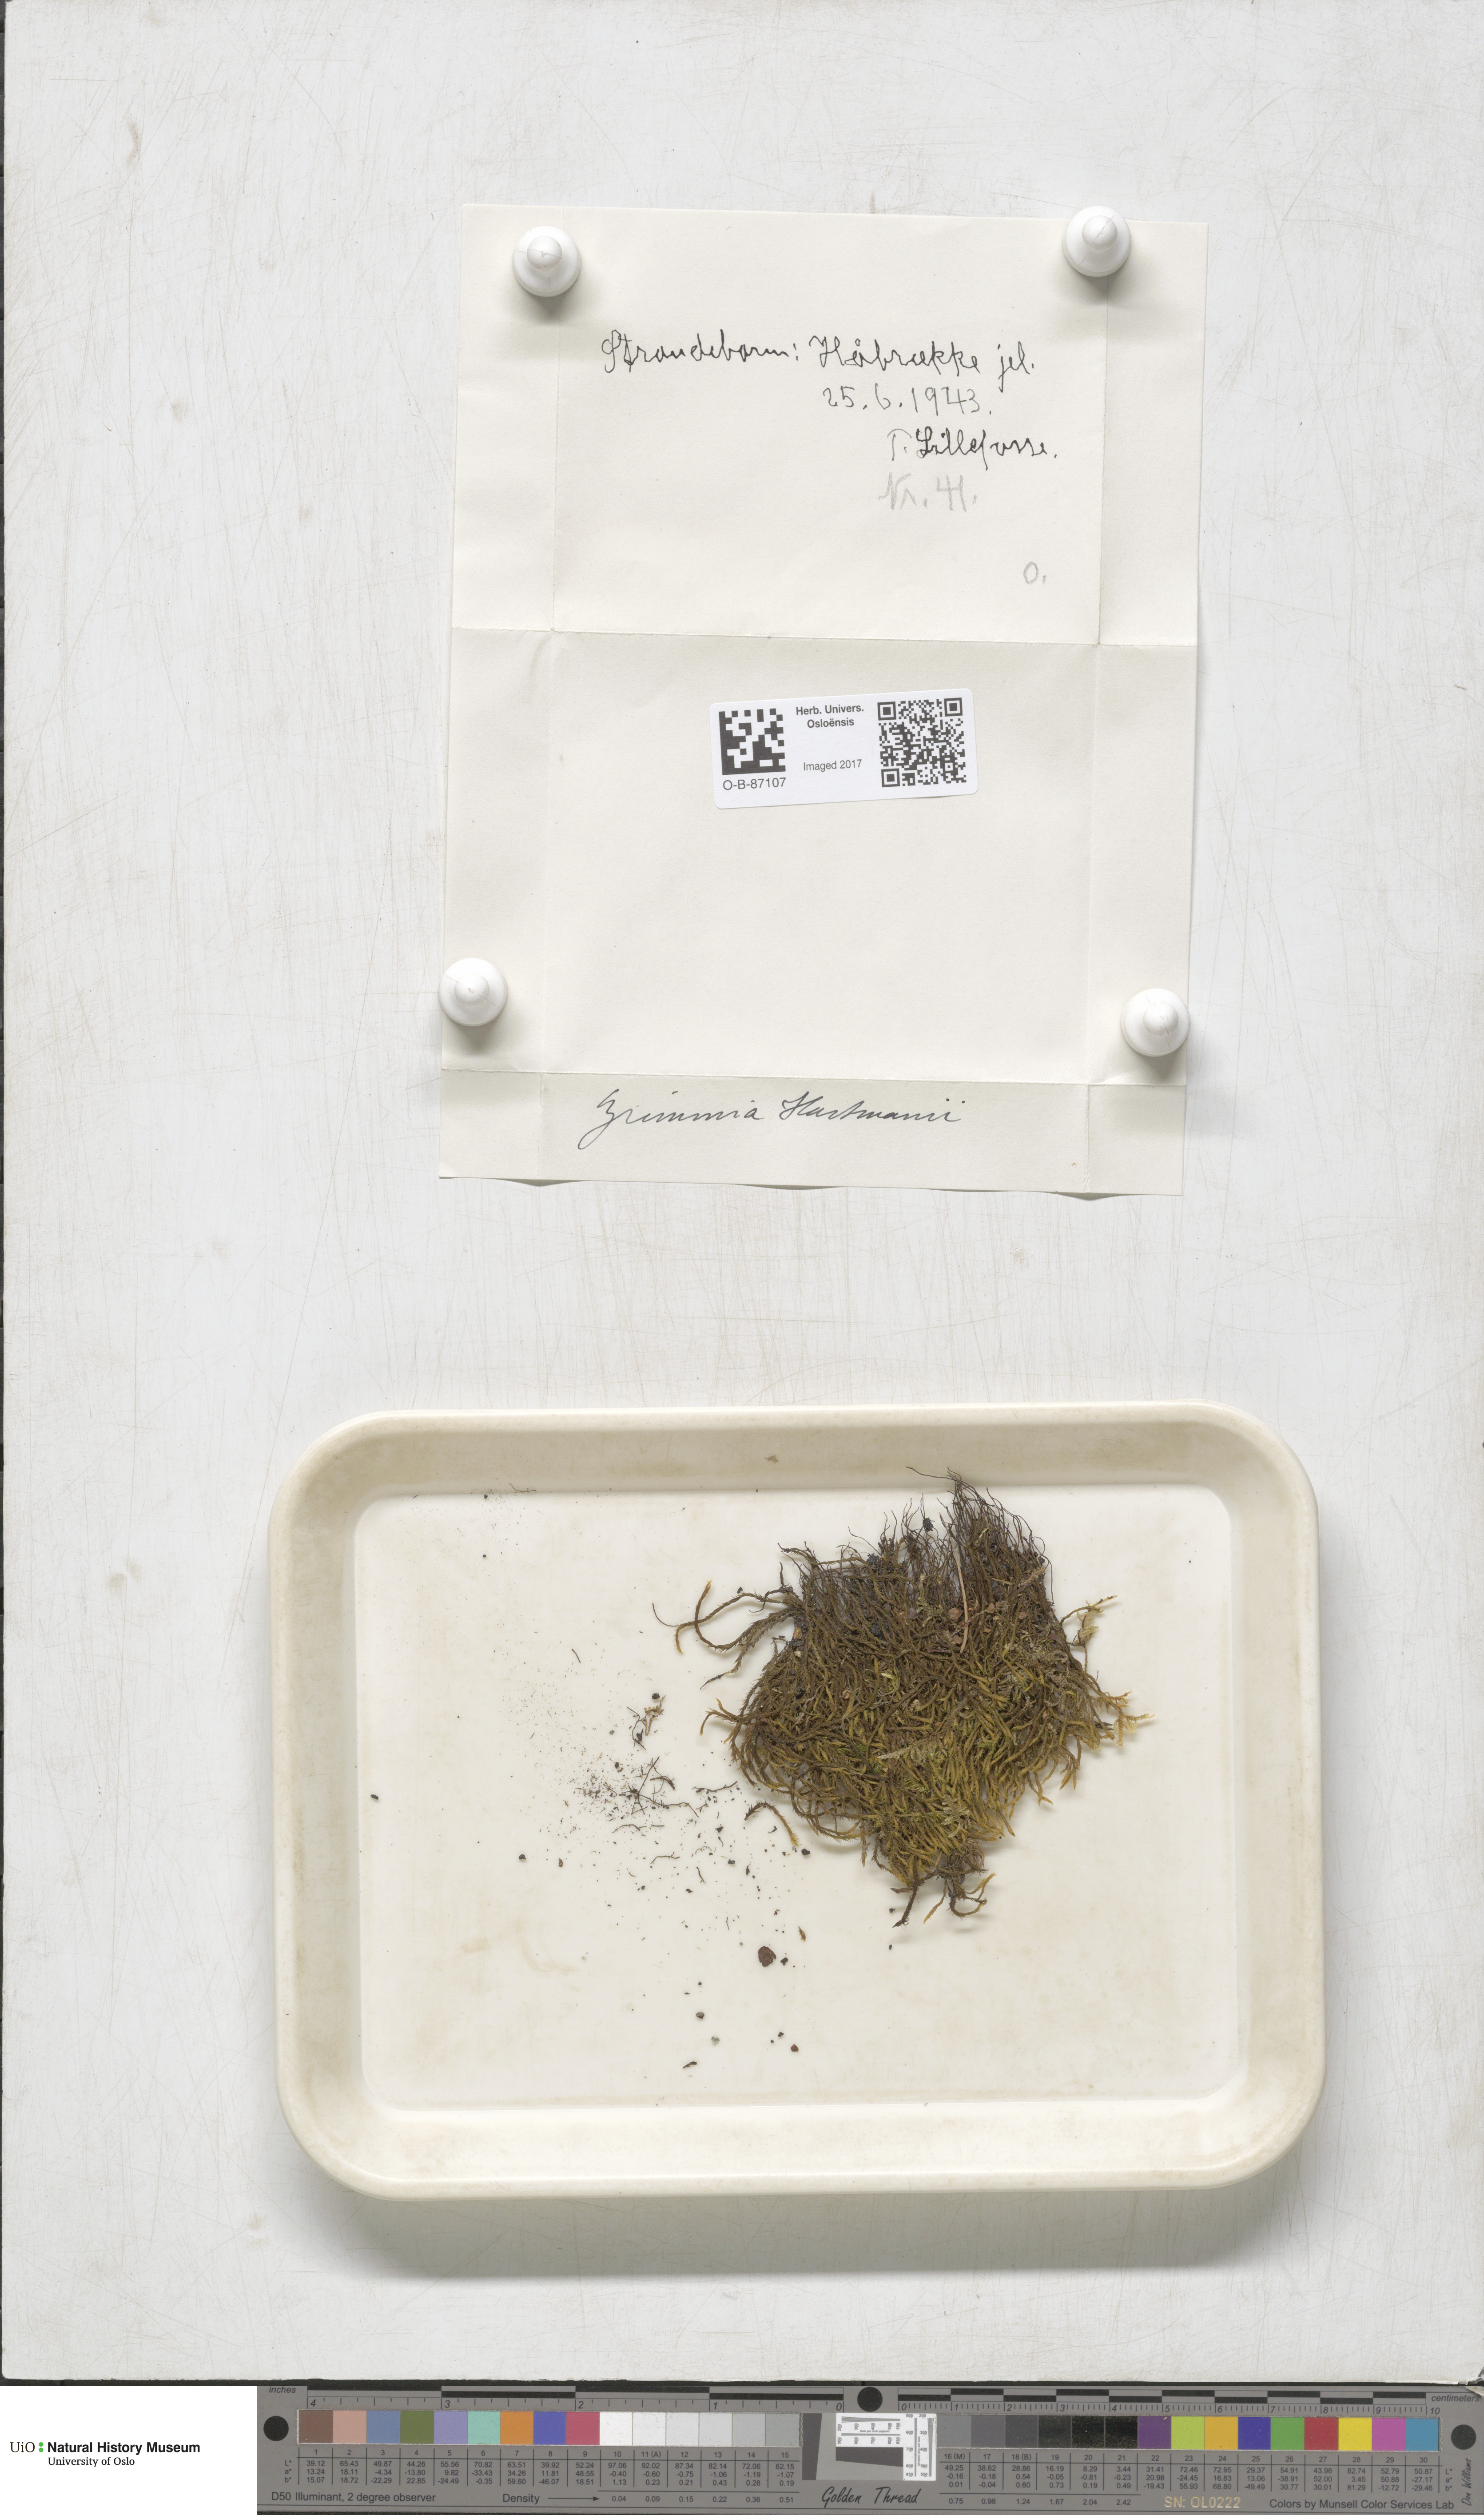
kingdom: Plantae
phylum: Bryophyta
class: Bryopsida
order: Grimmiales
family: Grimmiaceae
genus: Grimmia
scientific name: Grimmia hartmanii
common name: Hartman's grimmia
